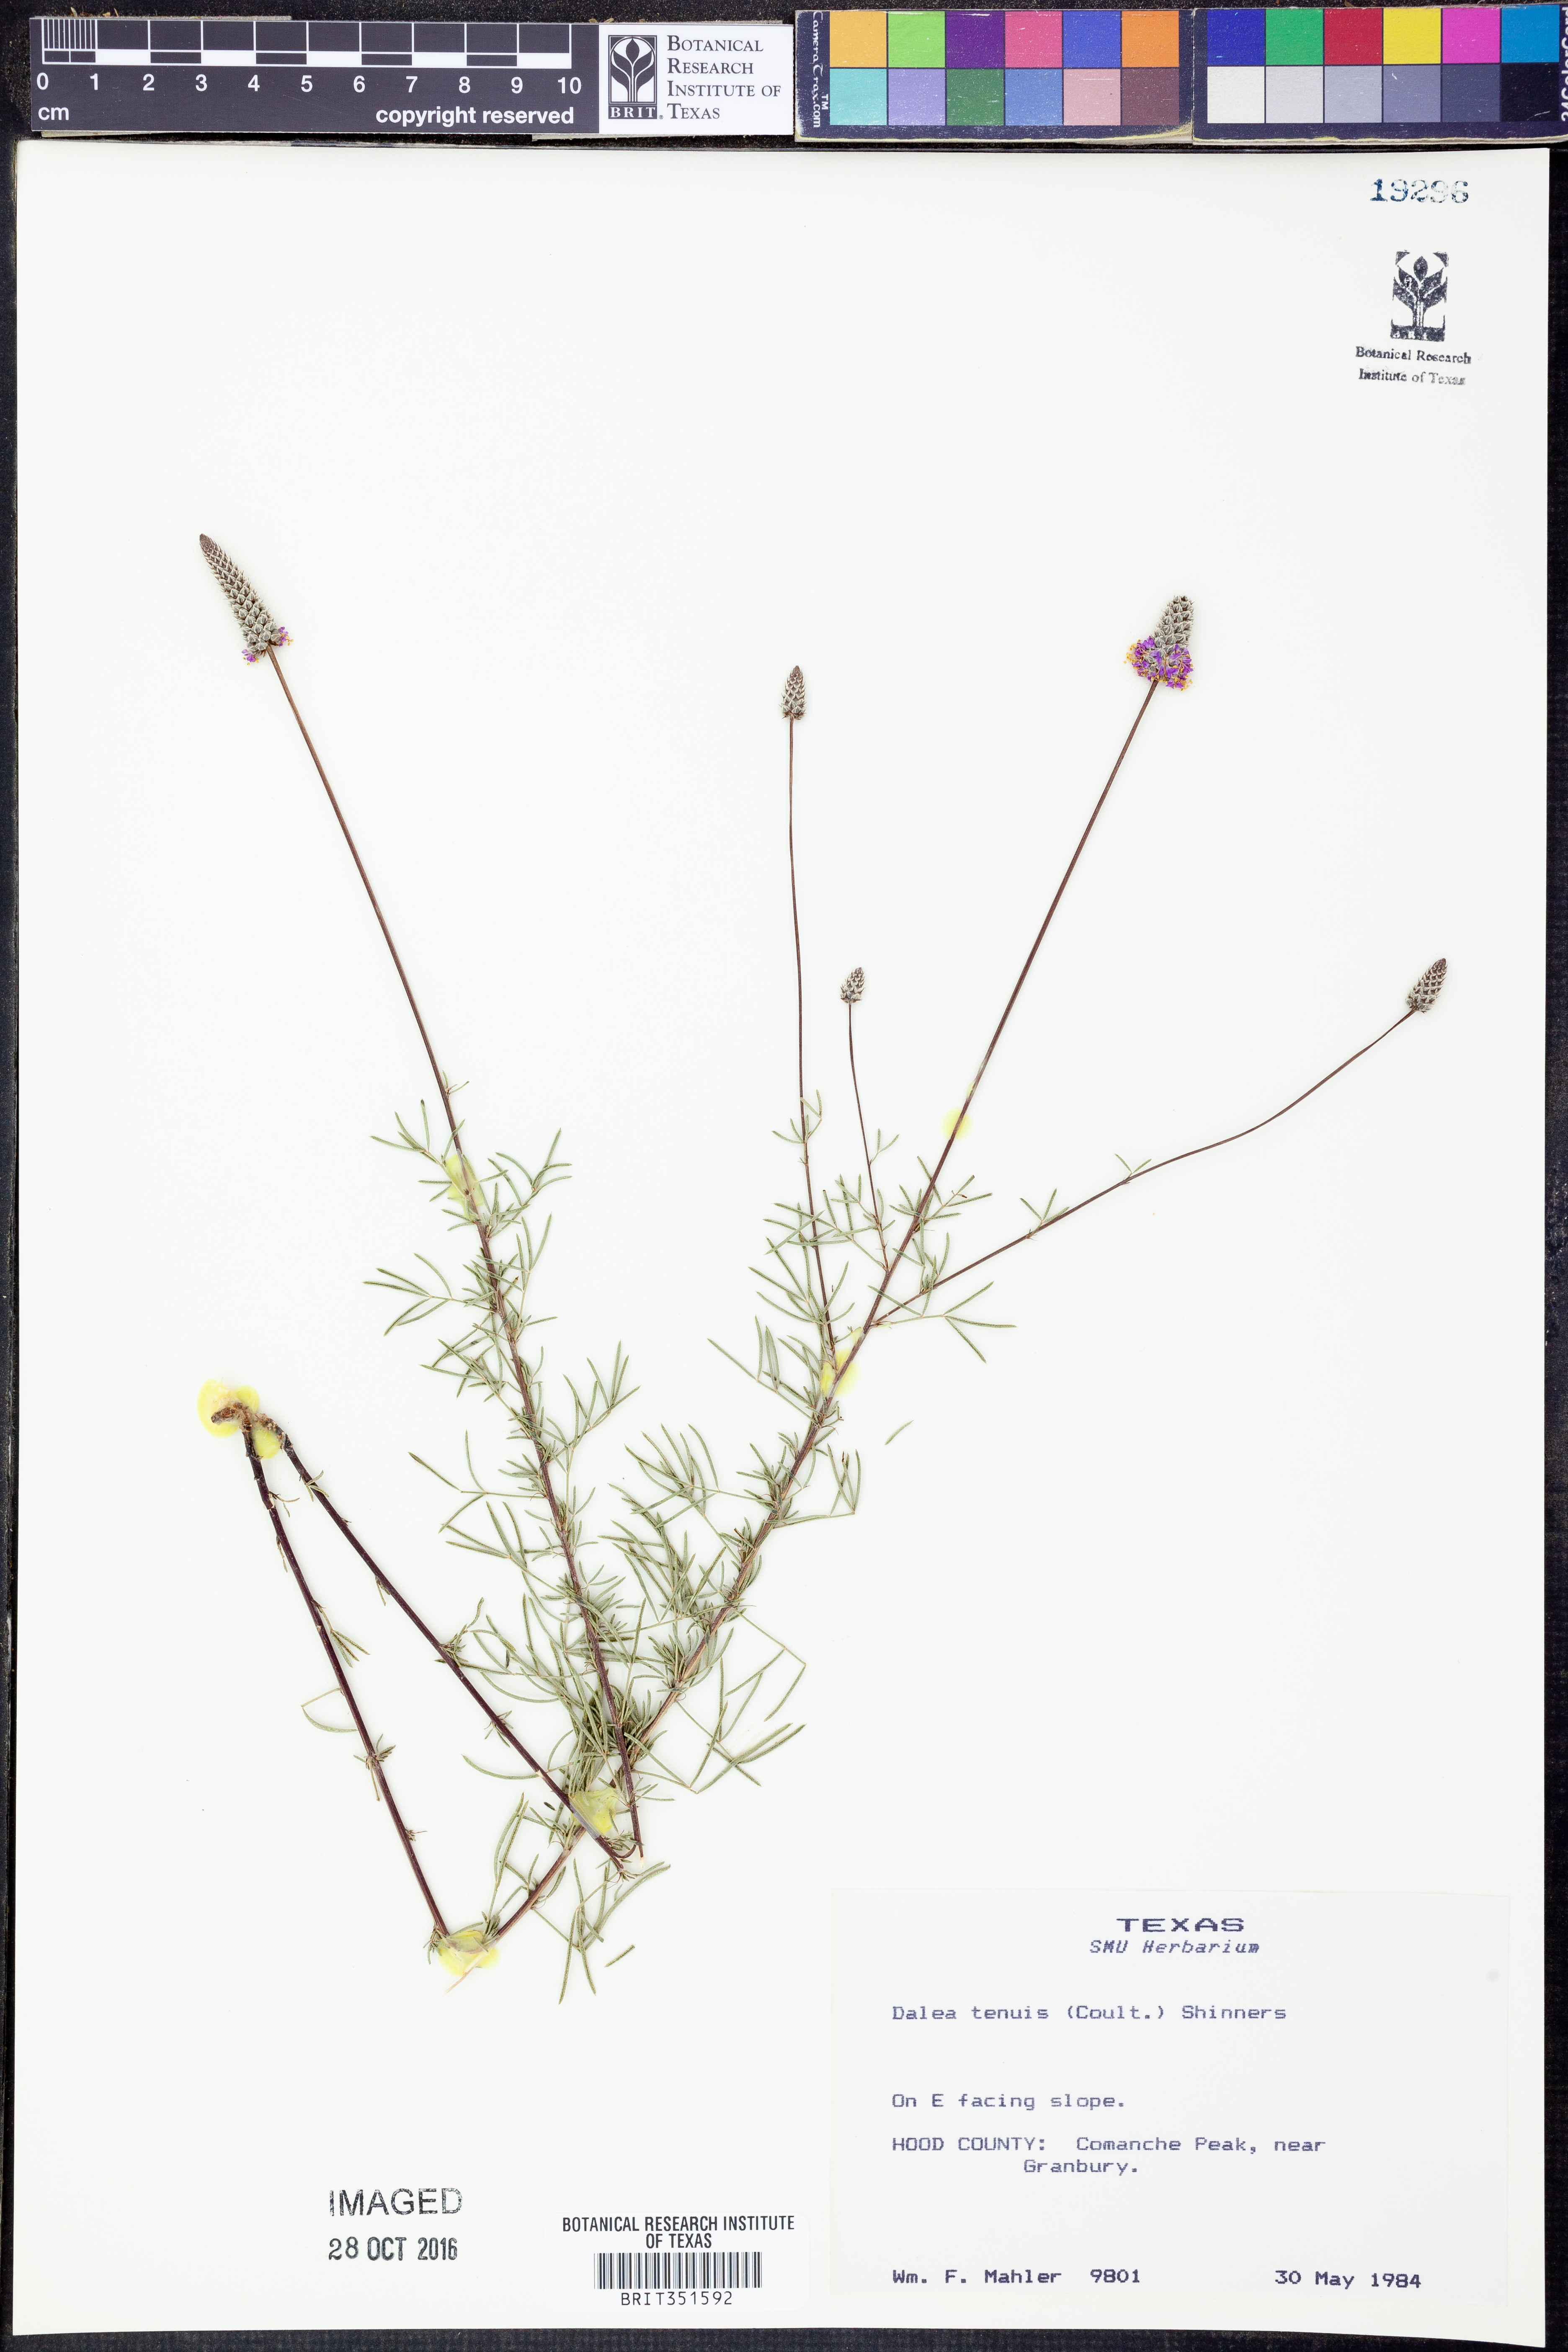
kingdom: Plantae
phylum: Tracheophyta
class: Magnoliopsida
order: Fabales
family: Fabaceae
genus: Dalea
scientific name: Dalea tenuis
